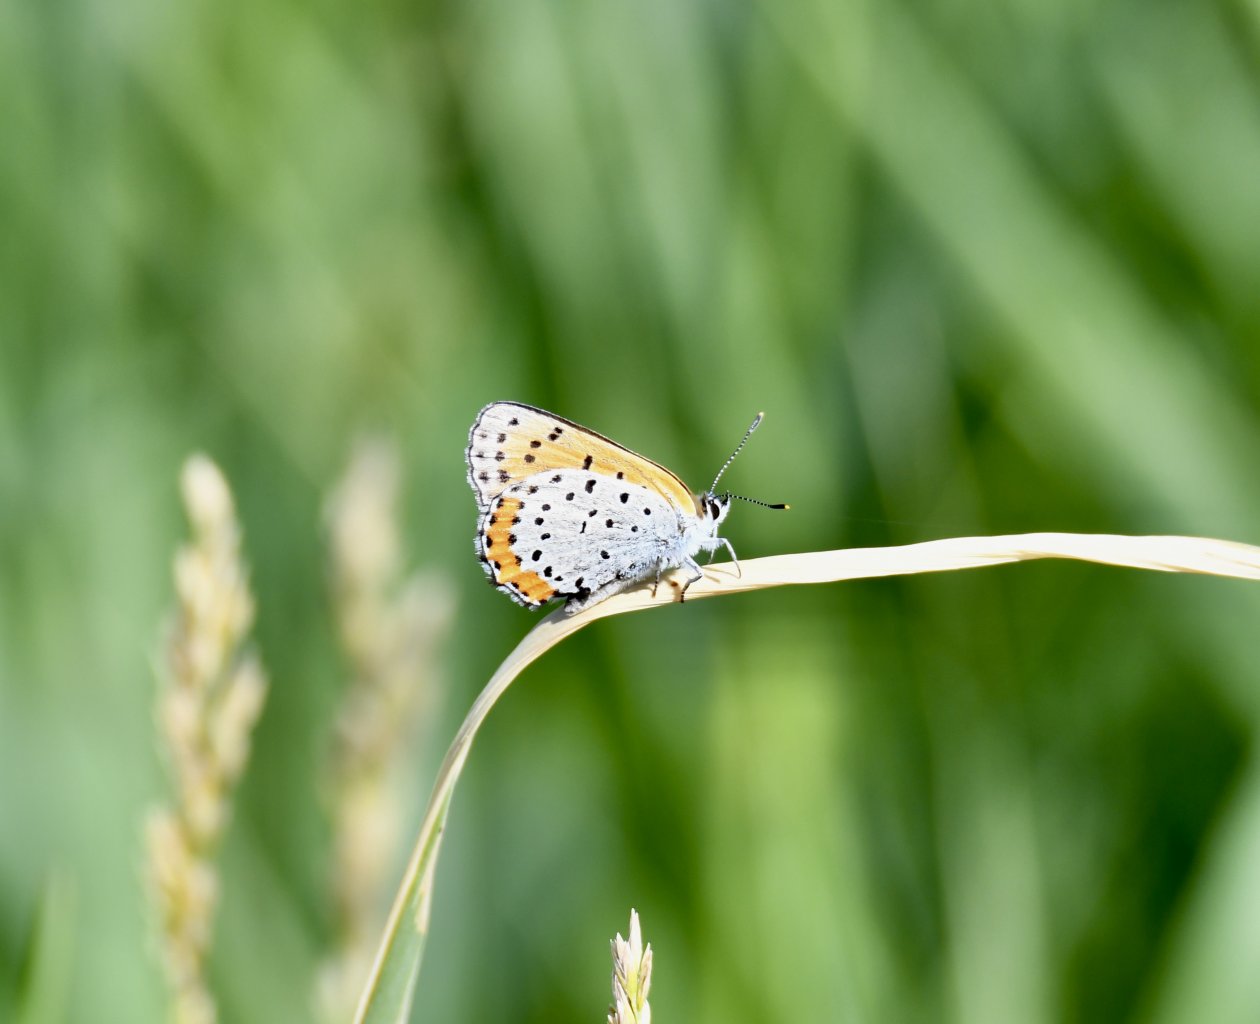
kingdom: Animalia
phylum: Arthropoda
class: Insecta
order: Lepidoptera
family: Sesiidae
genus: Sesia
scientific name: Sesia Lycaena hyllus
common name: Bronze Copper
